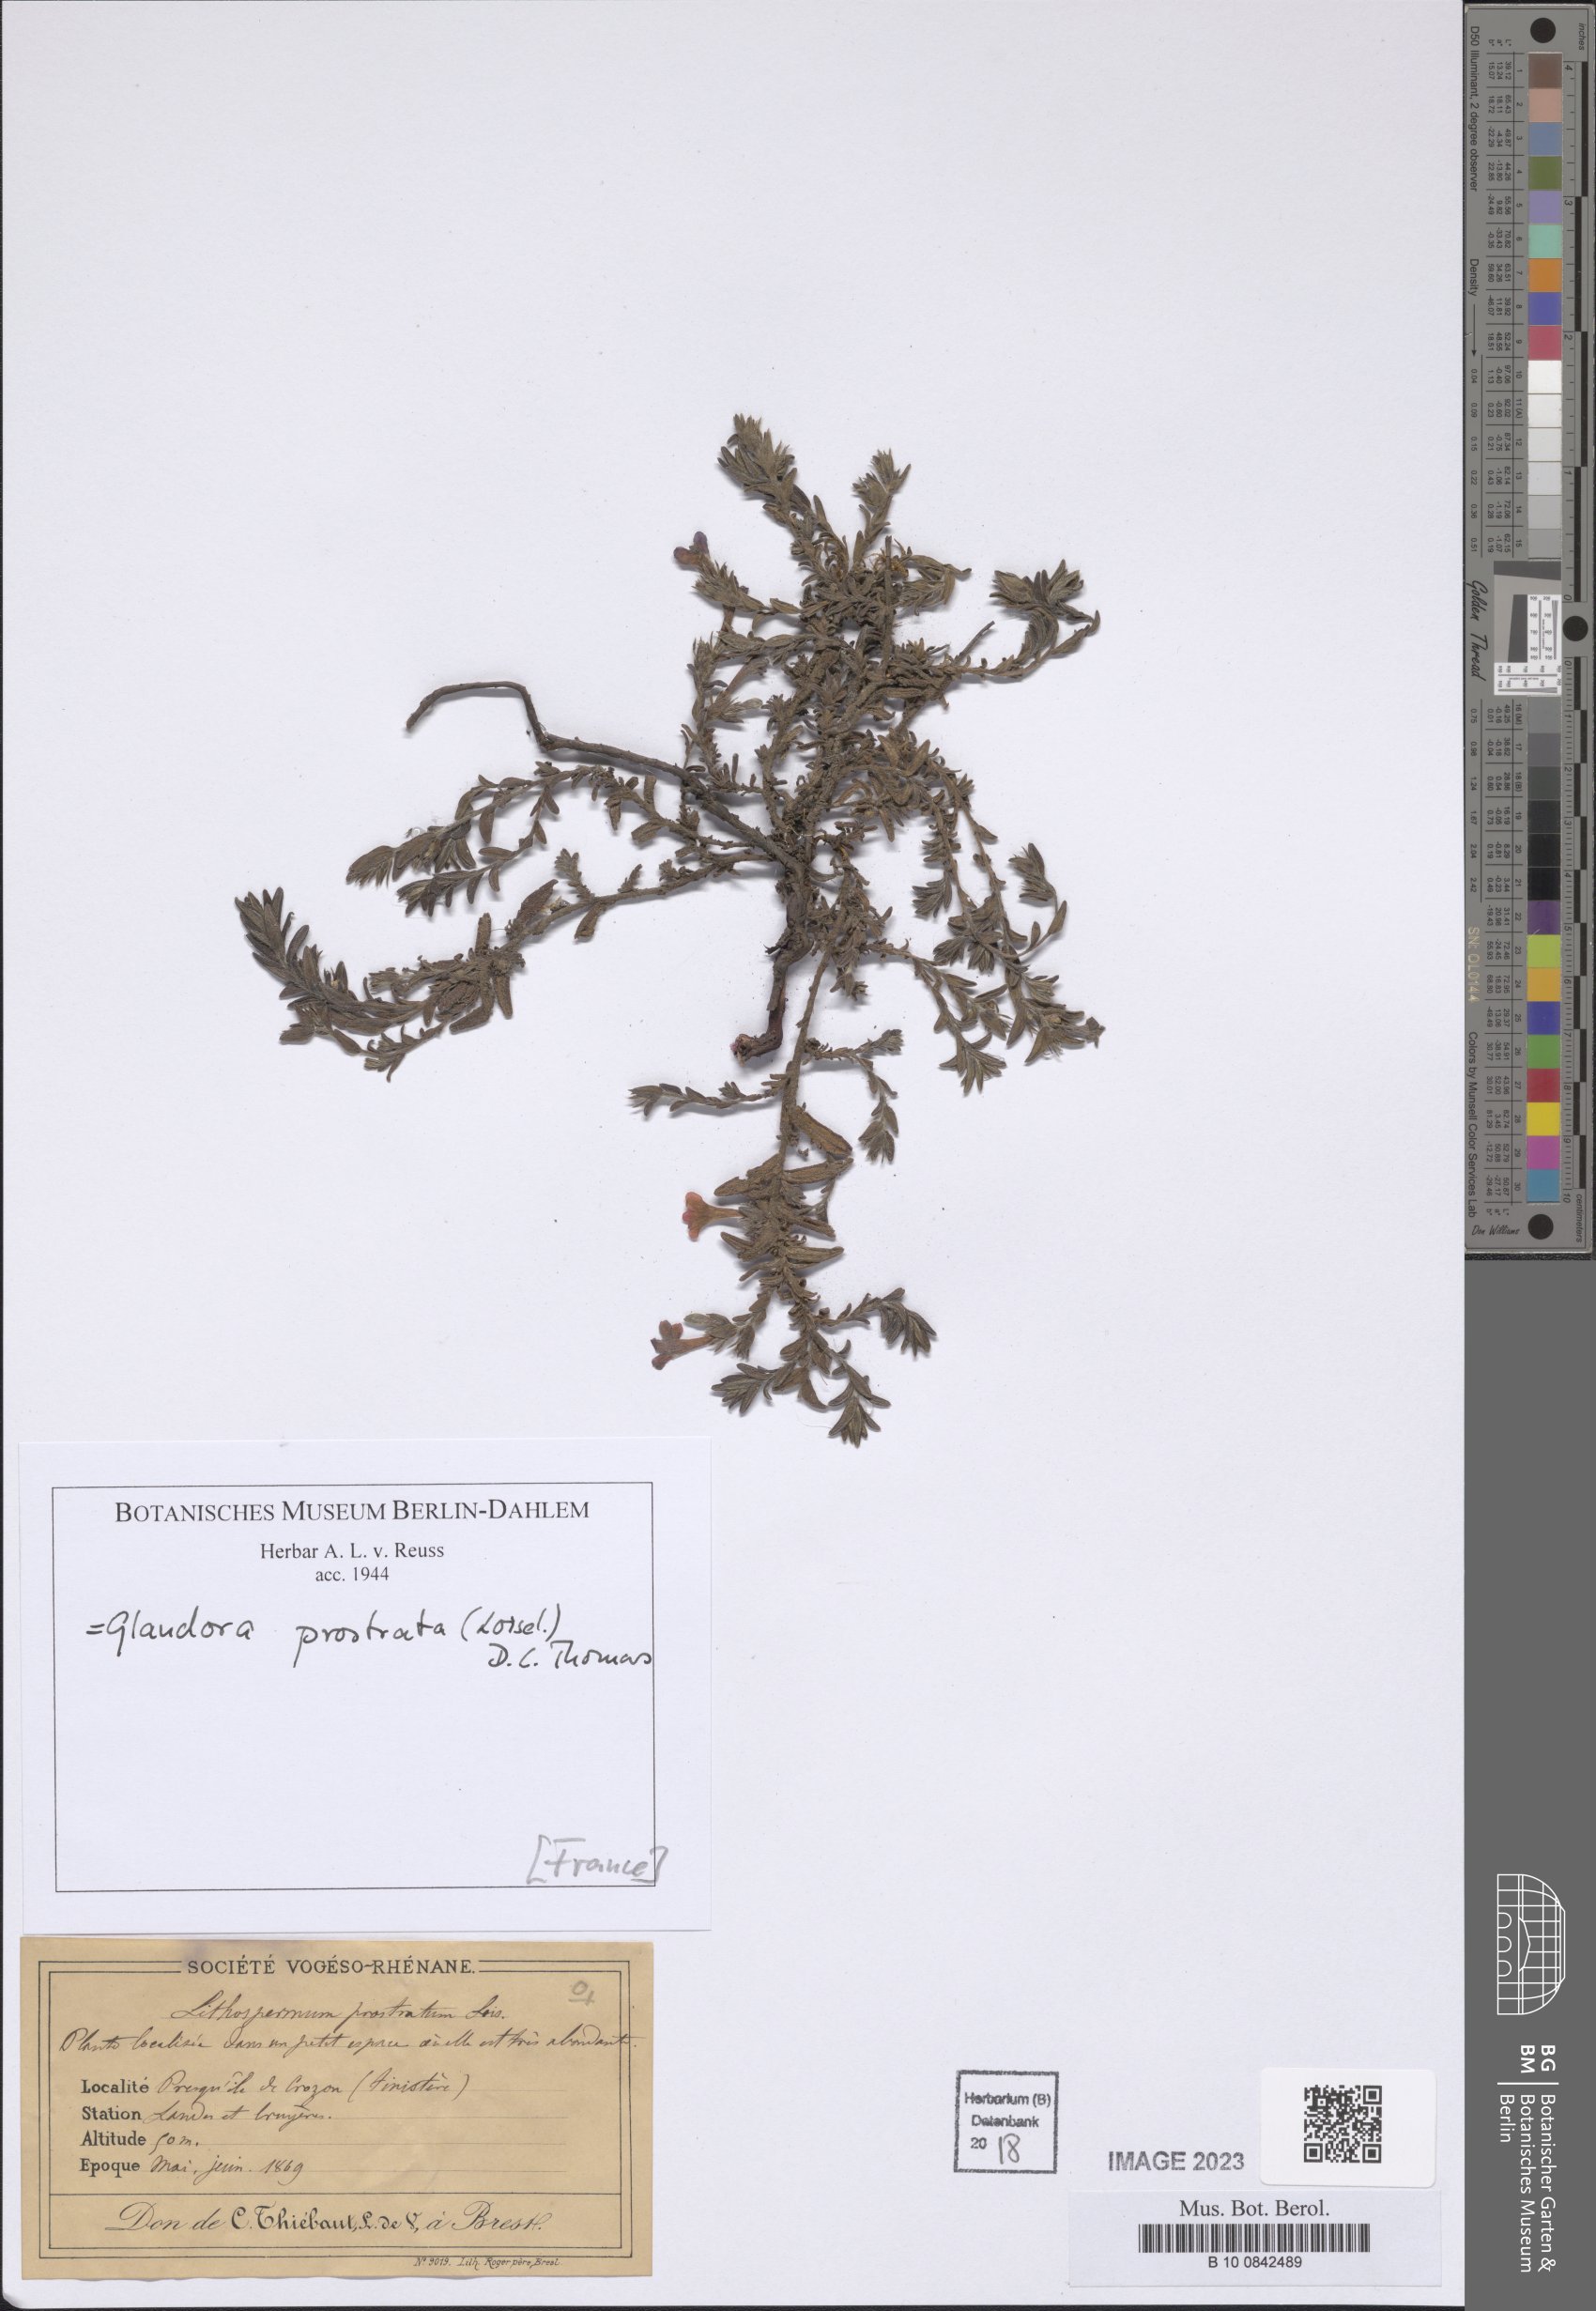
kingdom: Plantae
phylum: Tracheophyta
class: Magnoliopsida
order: Boraginales
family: Boraginaceae
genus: Glandora
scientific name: Glandora prostrata
